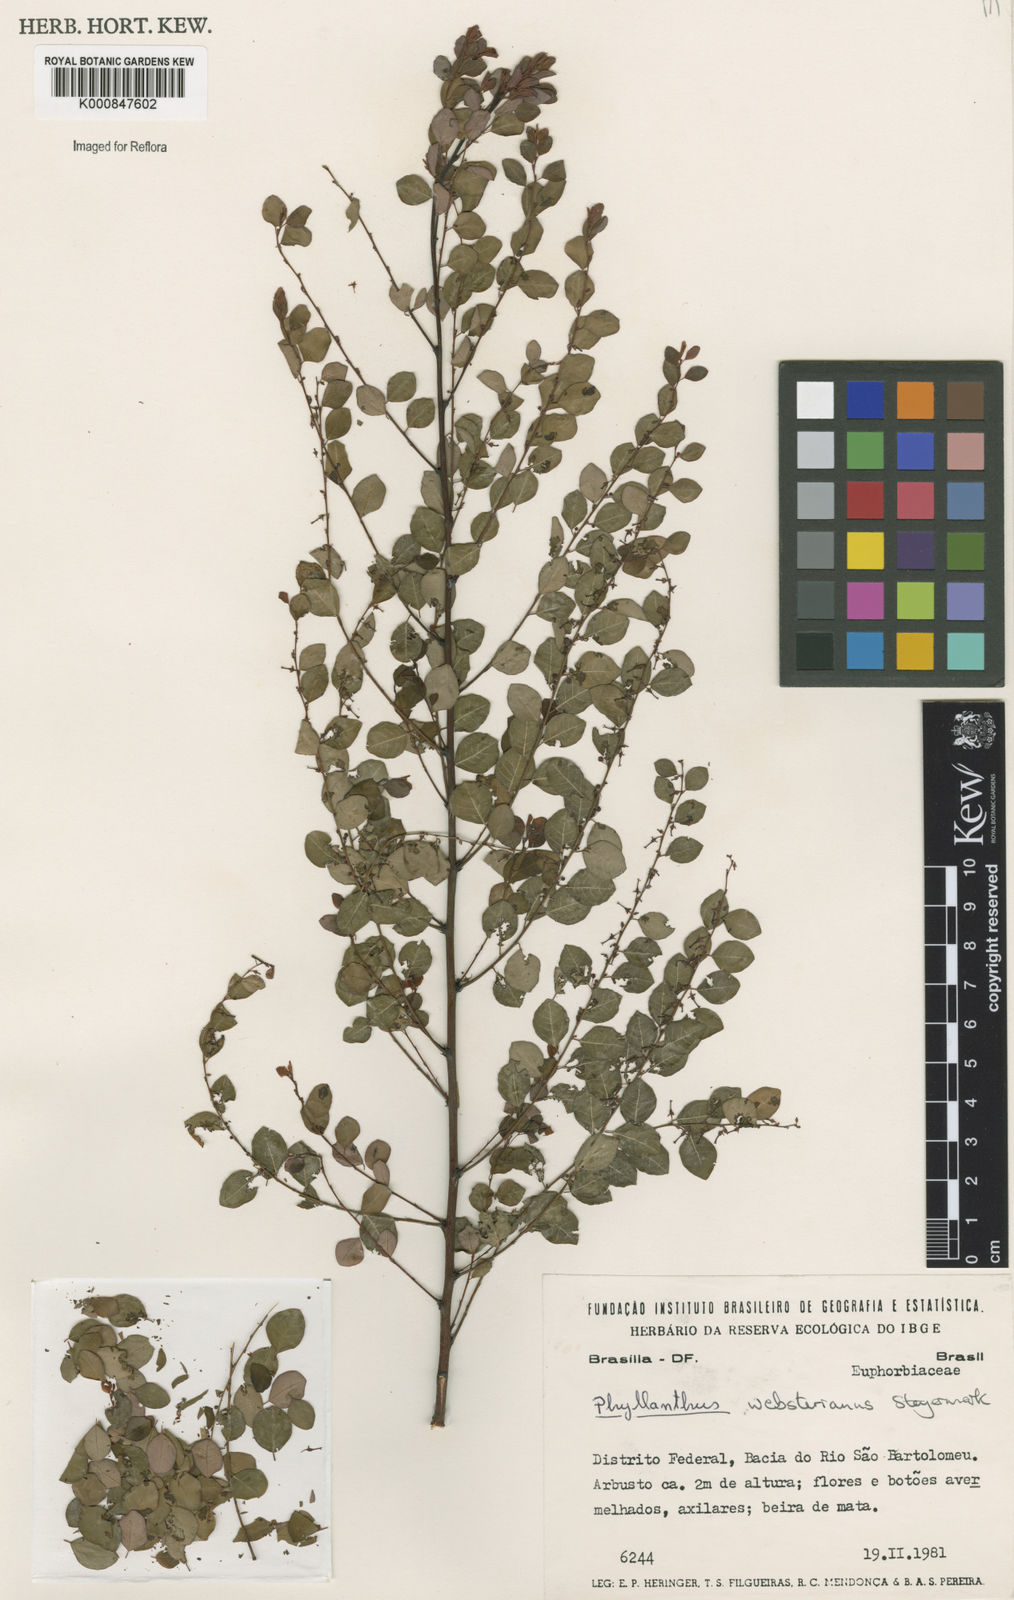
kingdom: Plantae
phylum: Tracheophyta
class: Magnoliopsida
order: Malpighiales
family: Phyllanthaceae
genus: Phyllanthus
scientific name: Phyllanthus websterianus
